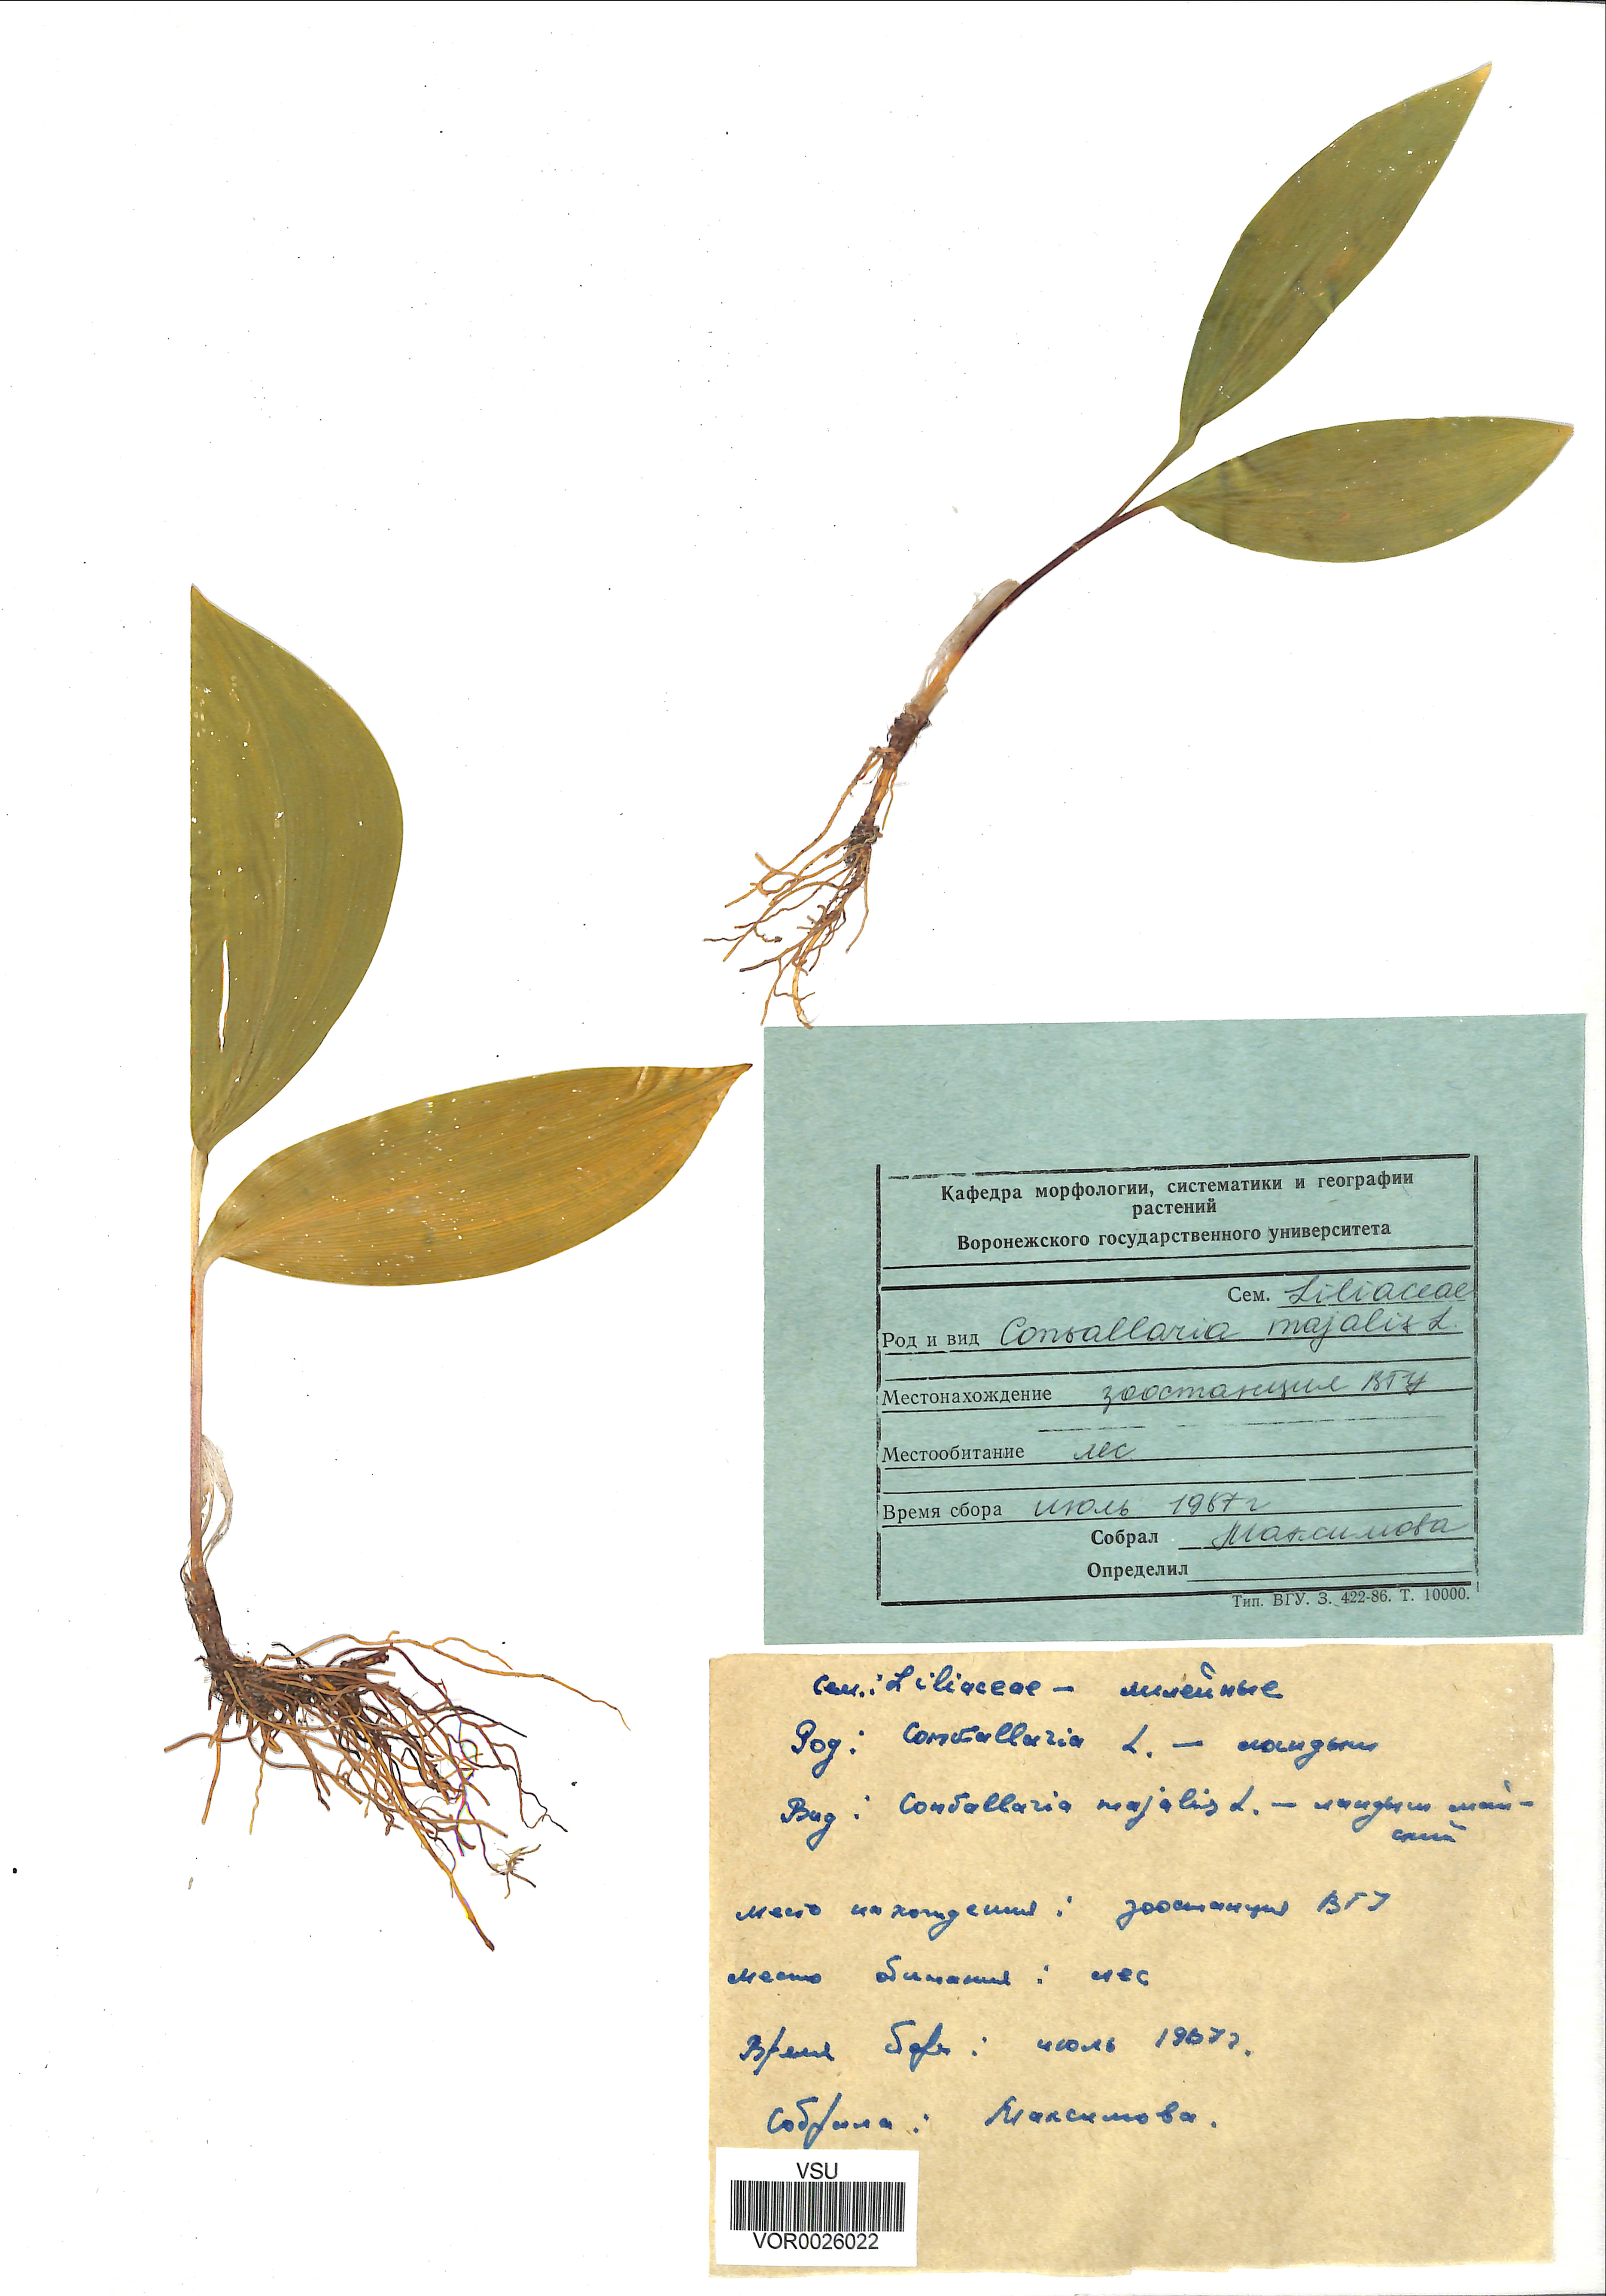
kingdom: Plantae
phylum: Tracheophyta
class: Liliopsida
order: Asparagales
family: Asparagaceae
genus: Convallaria
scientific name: Convallaria majalis
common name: Lily-of-the-valley
